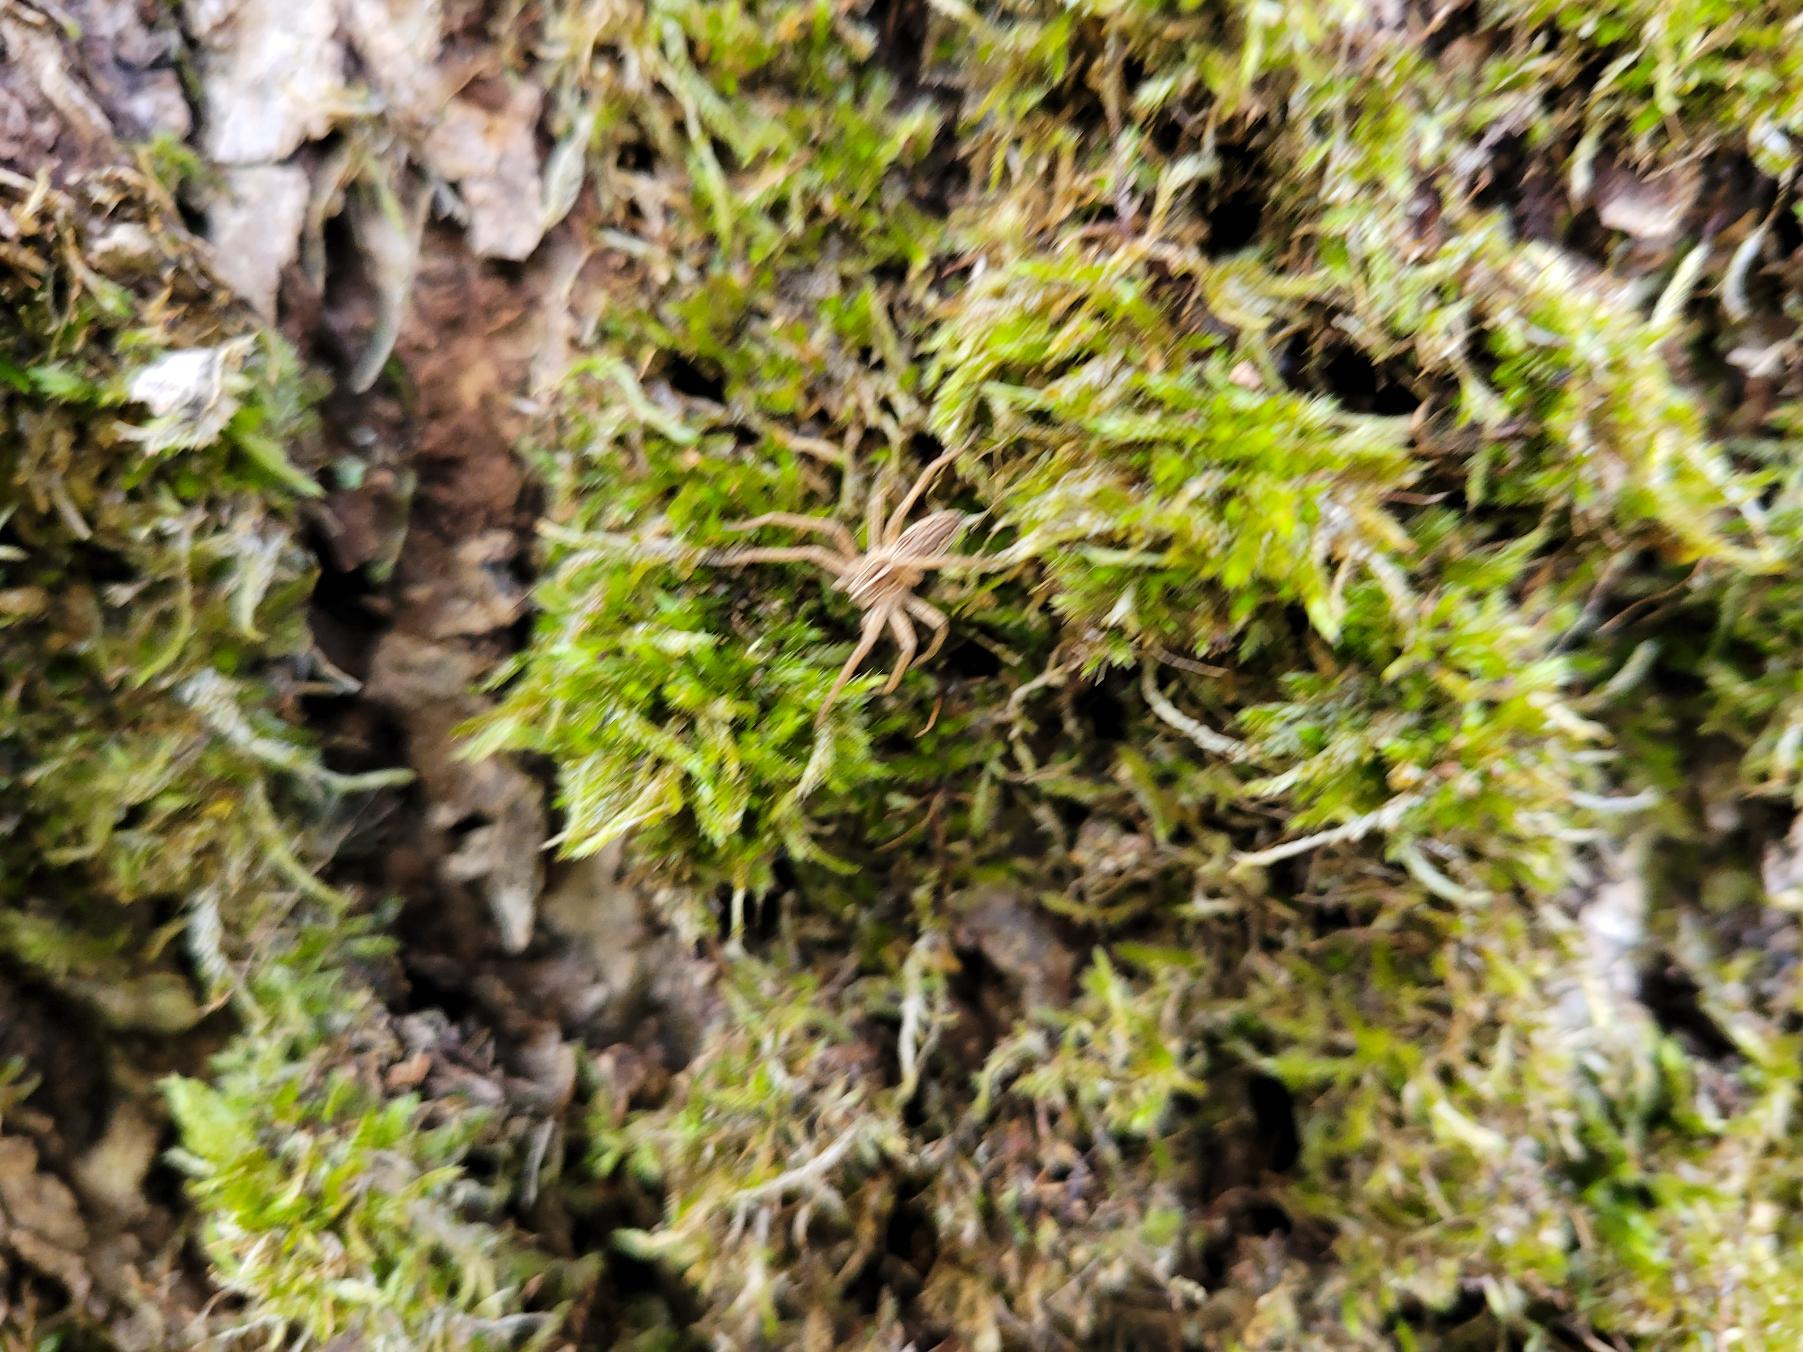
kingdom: Animalia
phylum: Arthropoda
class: Arachnida
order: Araneae
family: Pisauridae
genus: Pisaura
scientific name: Pisaura mirabilis
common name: Almindelig rovedderkop
